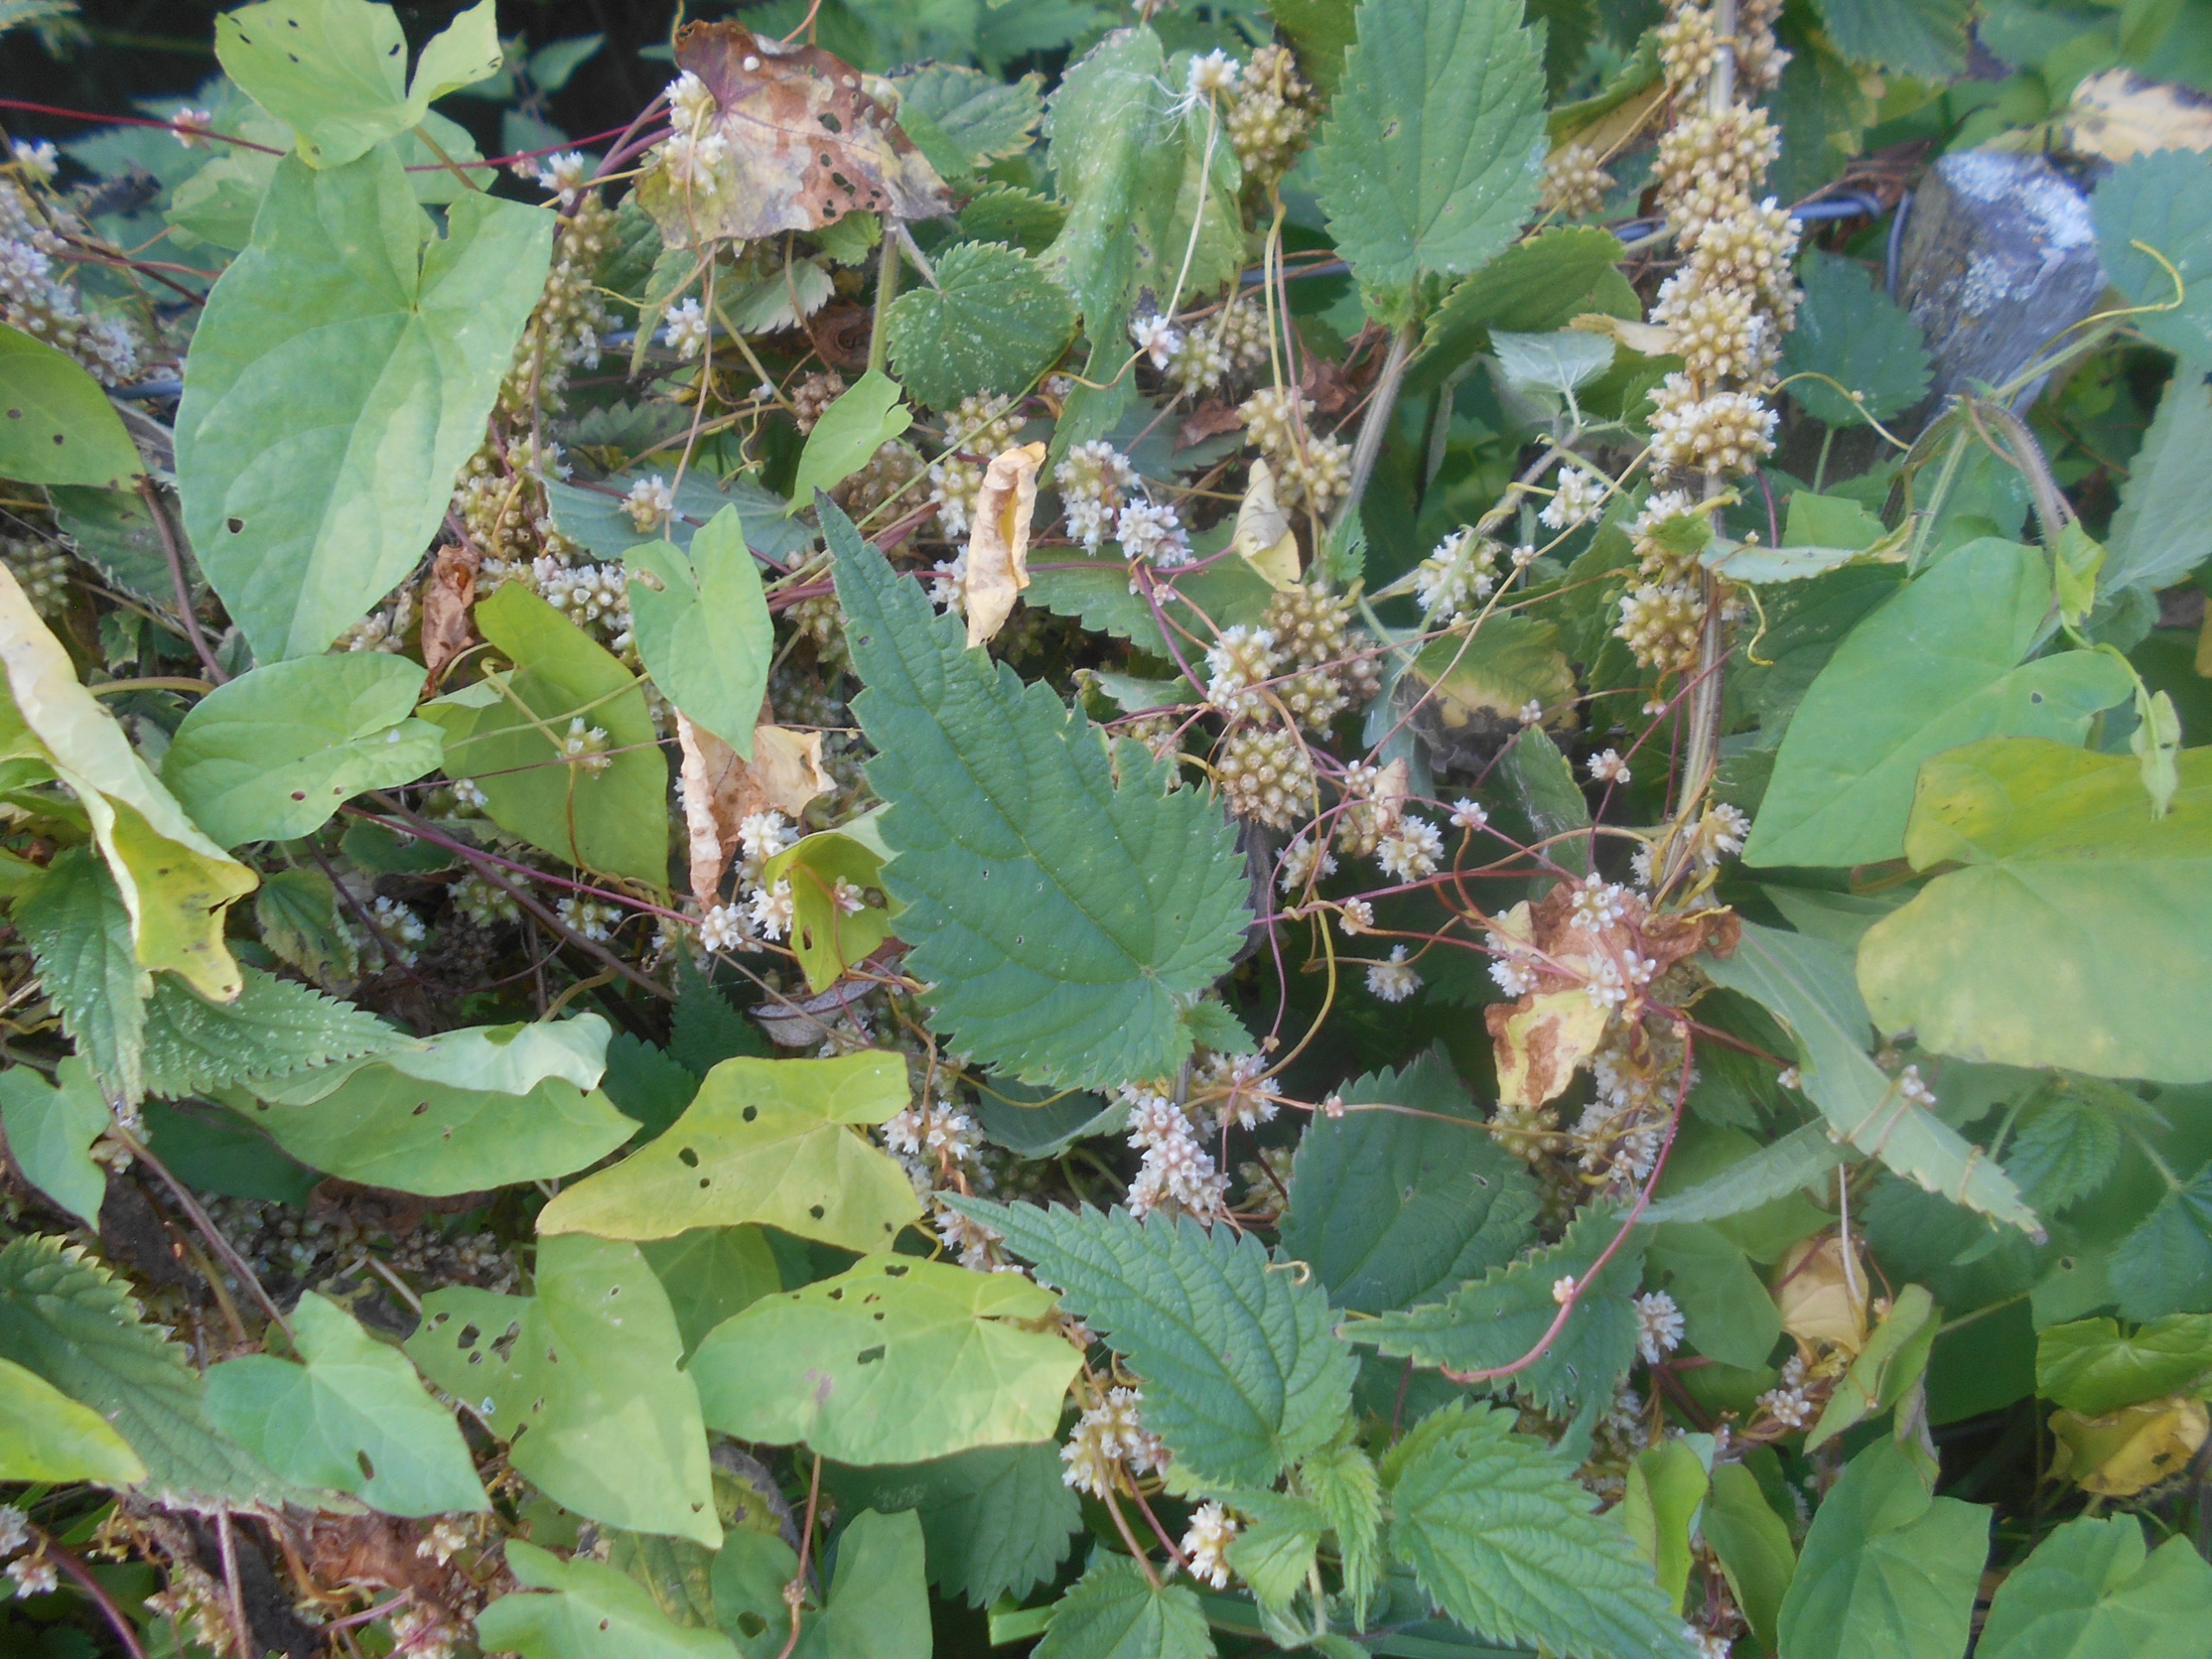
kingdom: Plantae
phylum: Tracheophyta
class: Magnoliopsida
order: Solanales
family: Convolvulaceae
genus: Cuscuta
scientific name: Cuscuta europaea
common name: Nælde-silke
